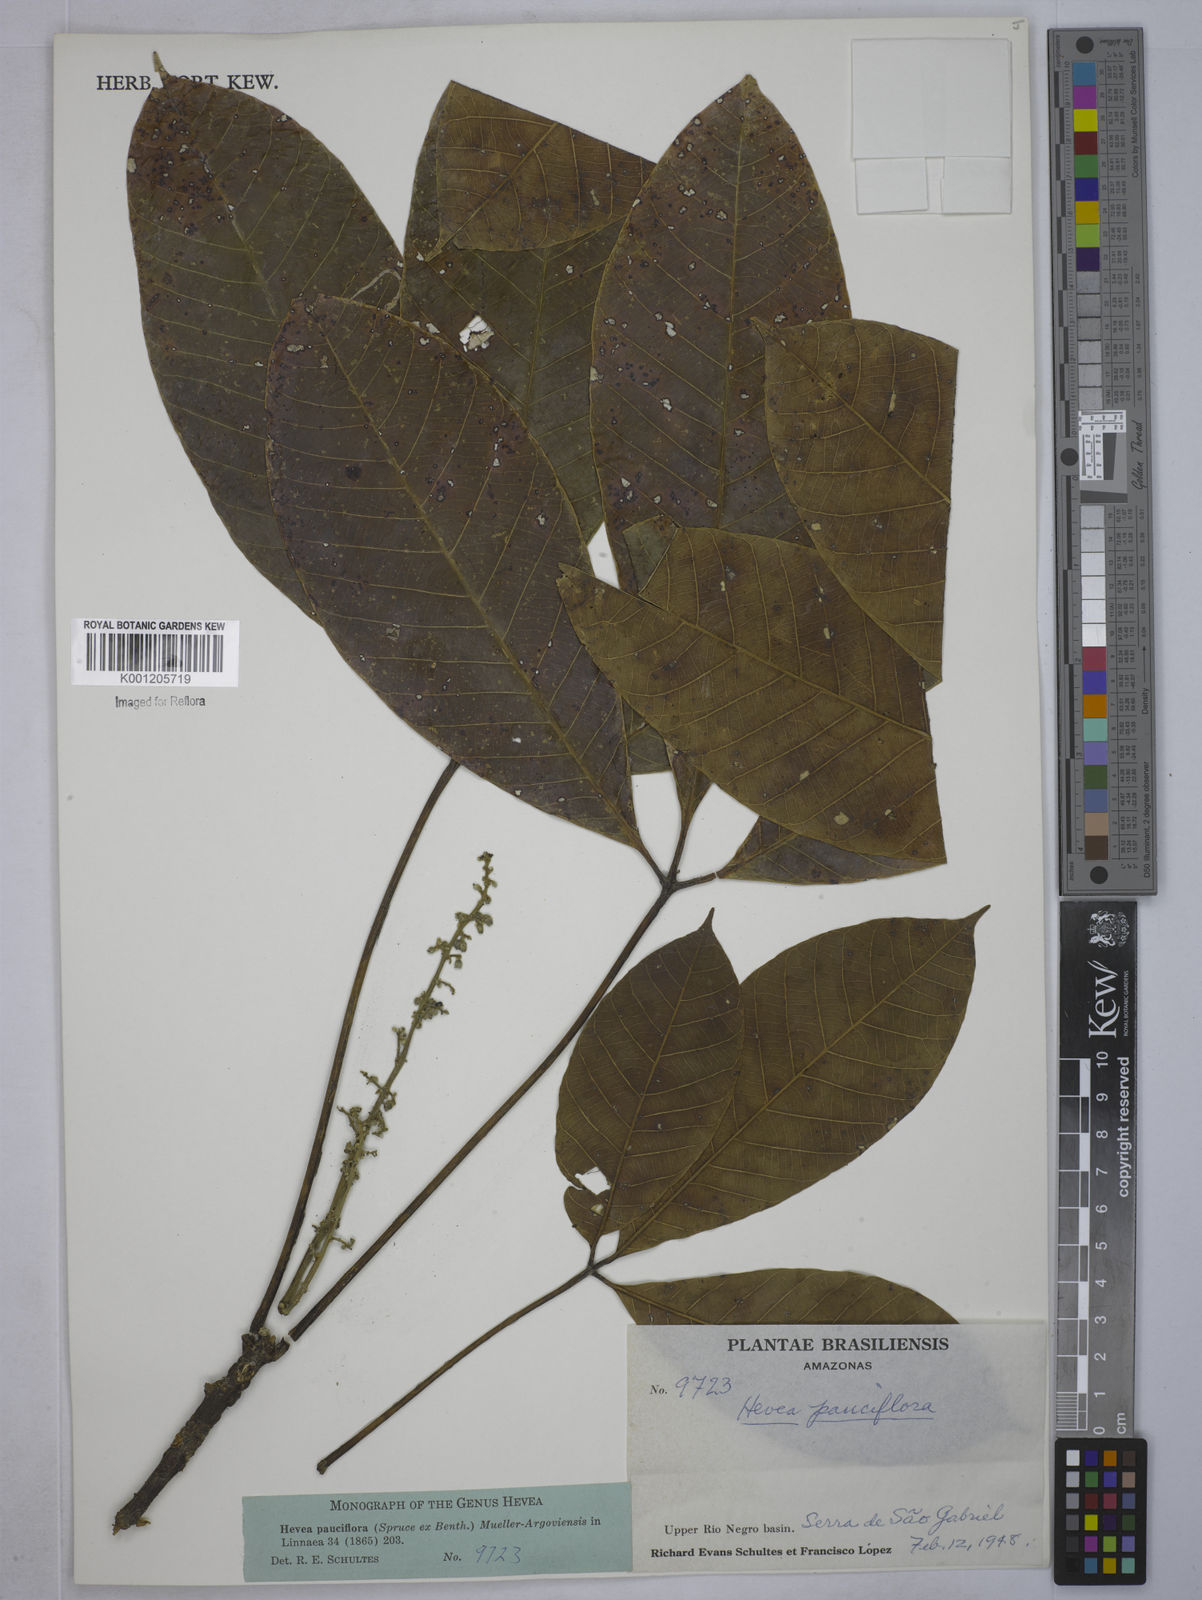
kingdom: Plantae
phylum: Tracheophyta
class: Magnoliopsida
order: Malpighiales
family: Euphorbiaceae
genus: Hevea
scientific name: Hevea pauciflora
